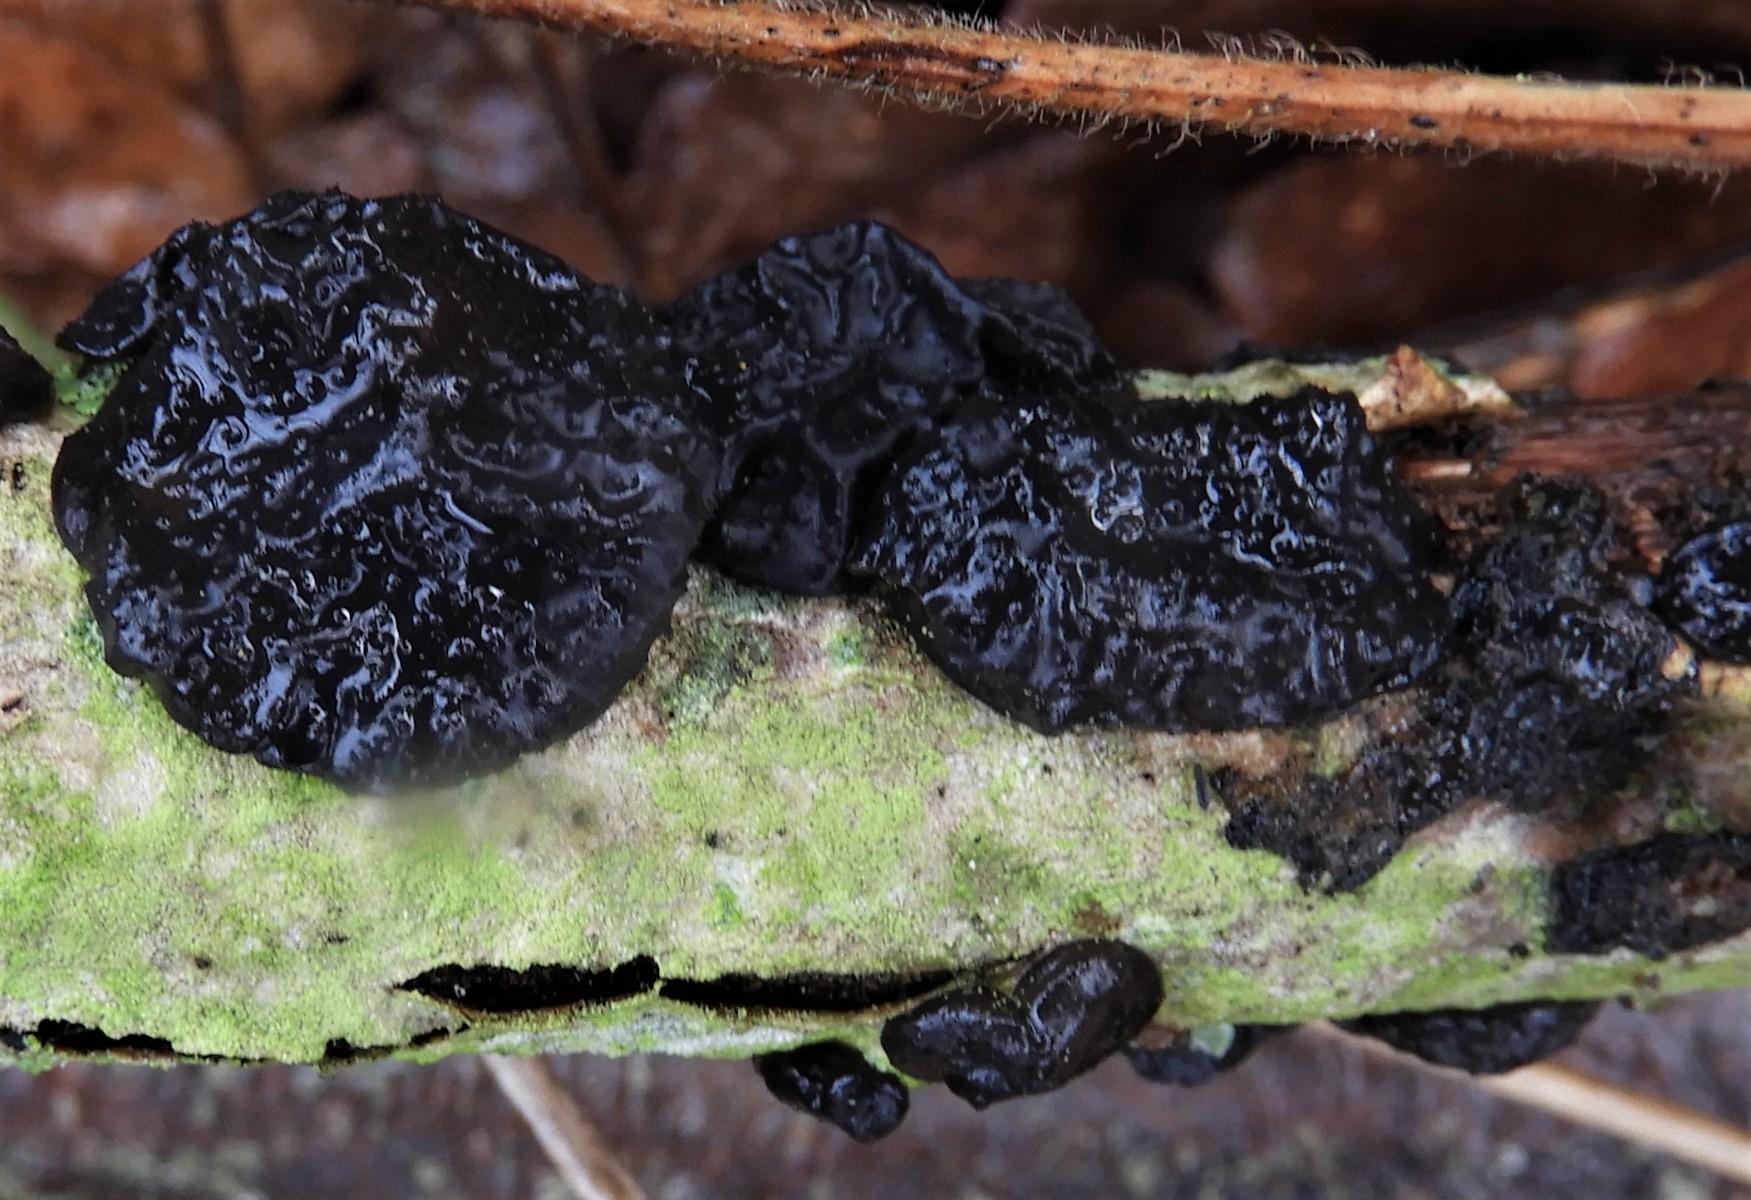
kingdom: Fungi
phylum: Basidiomycota
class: Agaricomycetes
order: Auriculariales
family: Auriculariaceae
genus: Exidia
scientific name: Exidia glandulosa
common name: ege-bævretop
